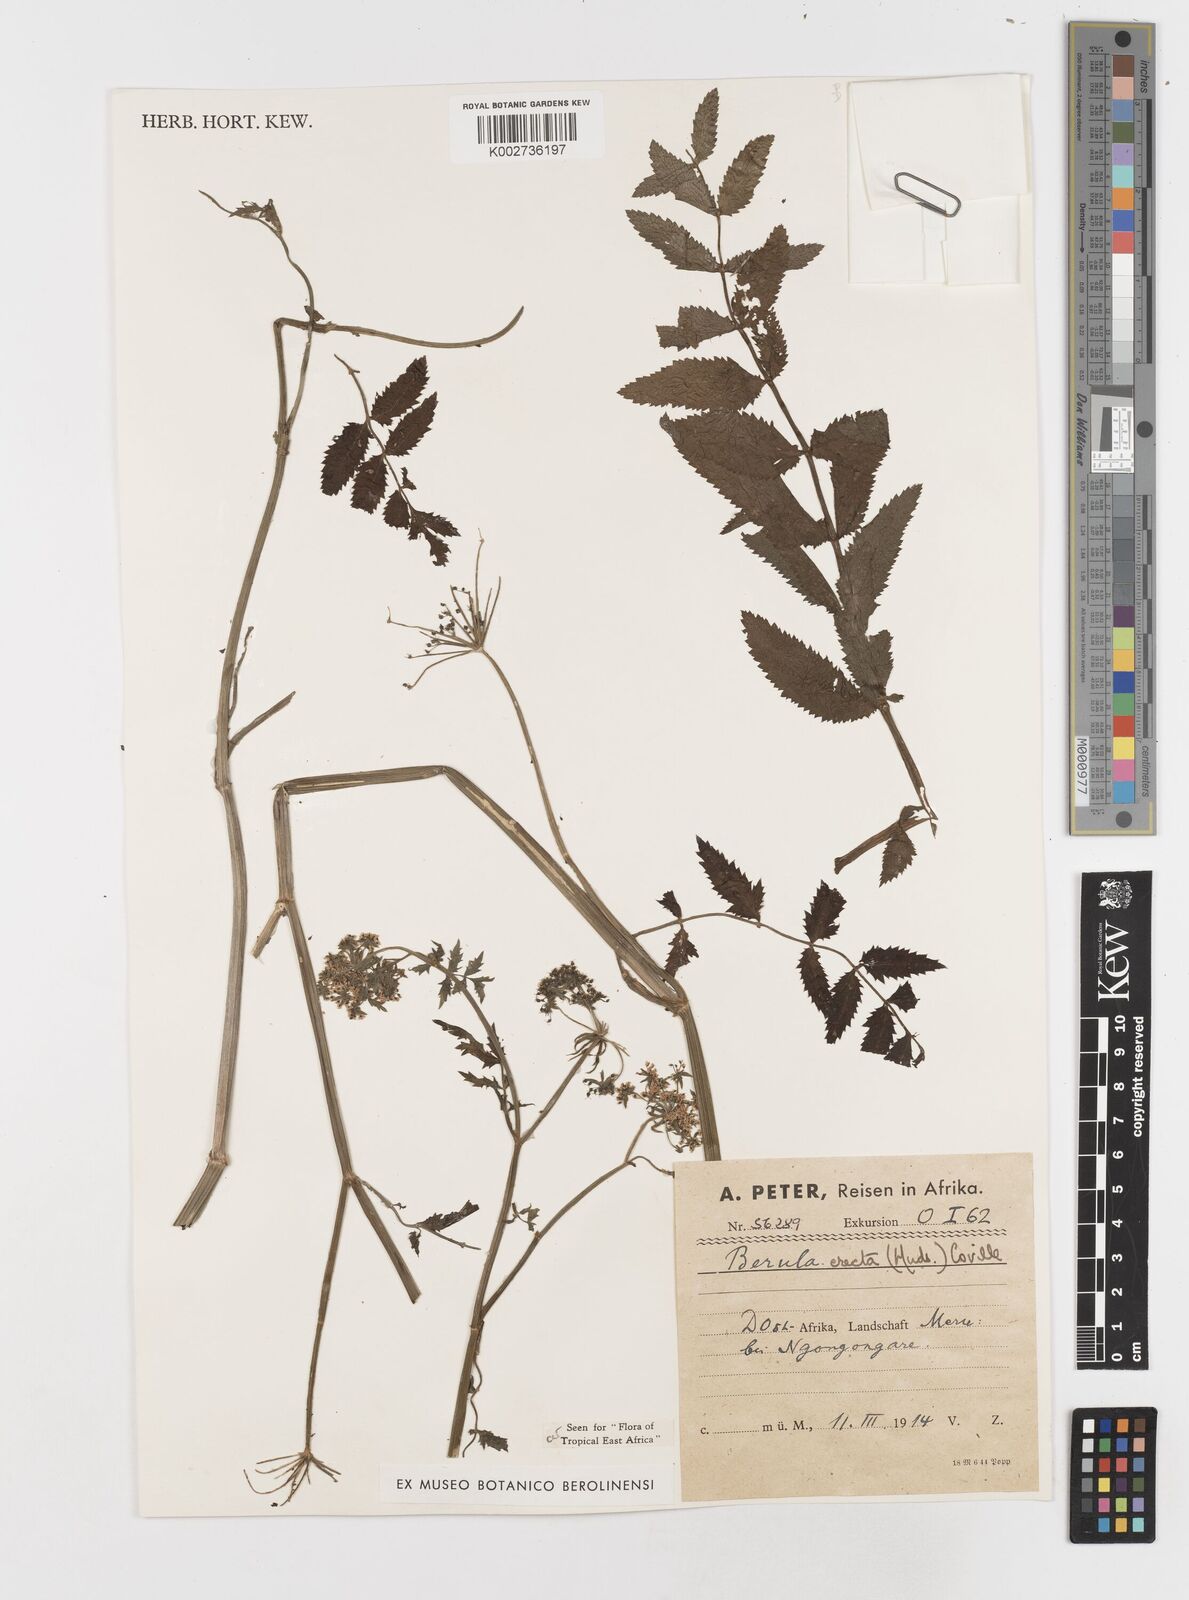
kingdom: Plantae
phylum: Tracheophyta
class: Magnoliopsida
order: Apiales
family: Apiaceae
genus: Berula
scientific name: Berula erecta
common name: Lesser water-parsnip
